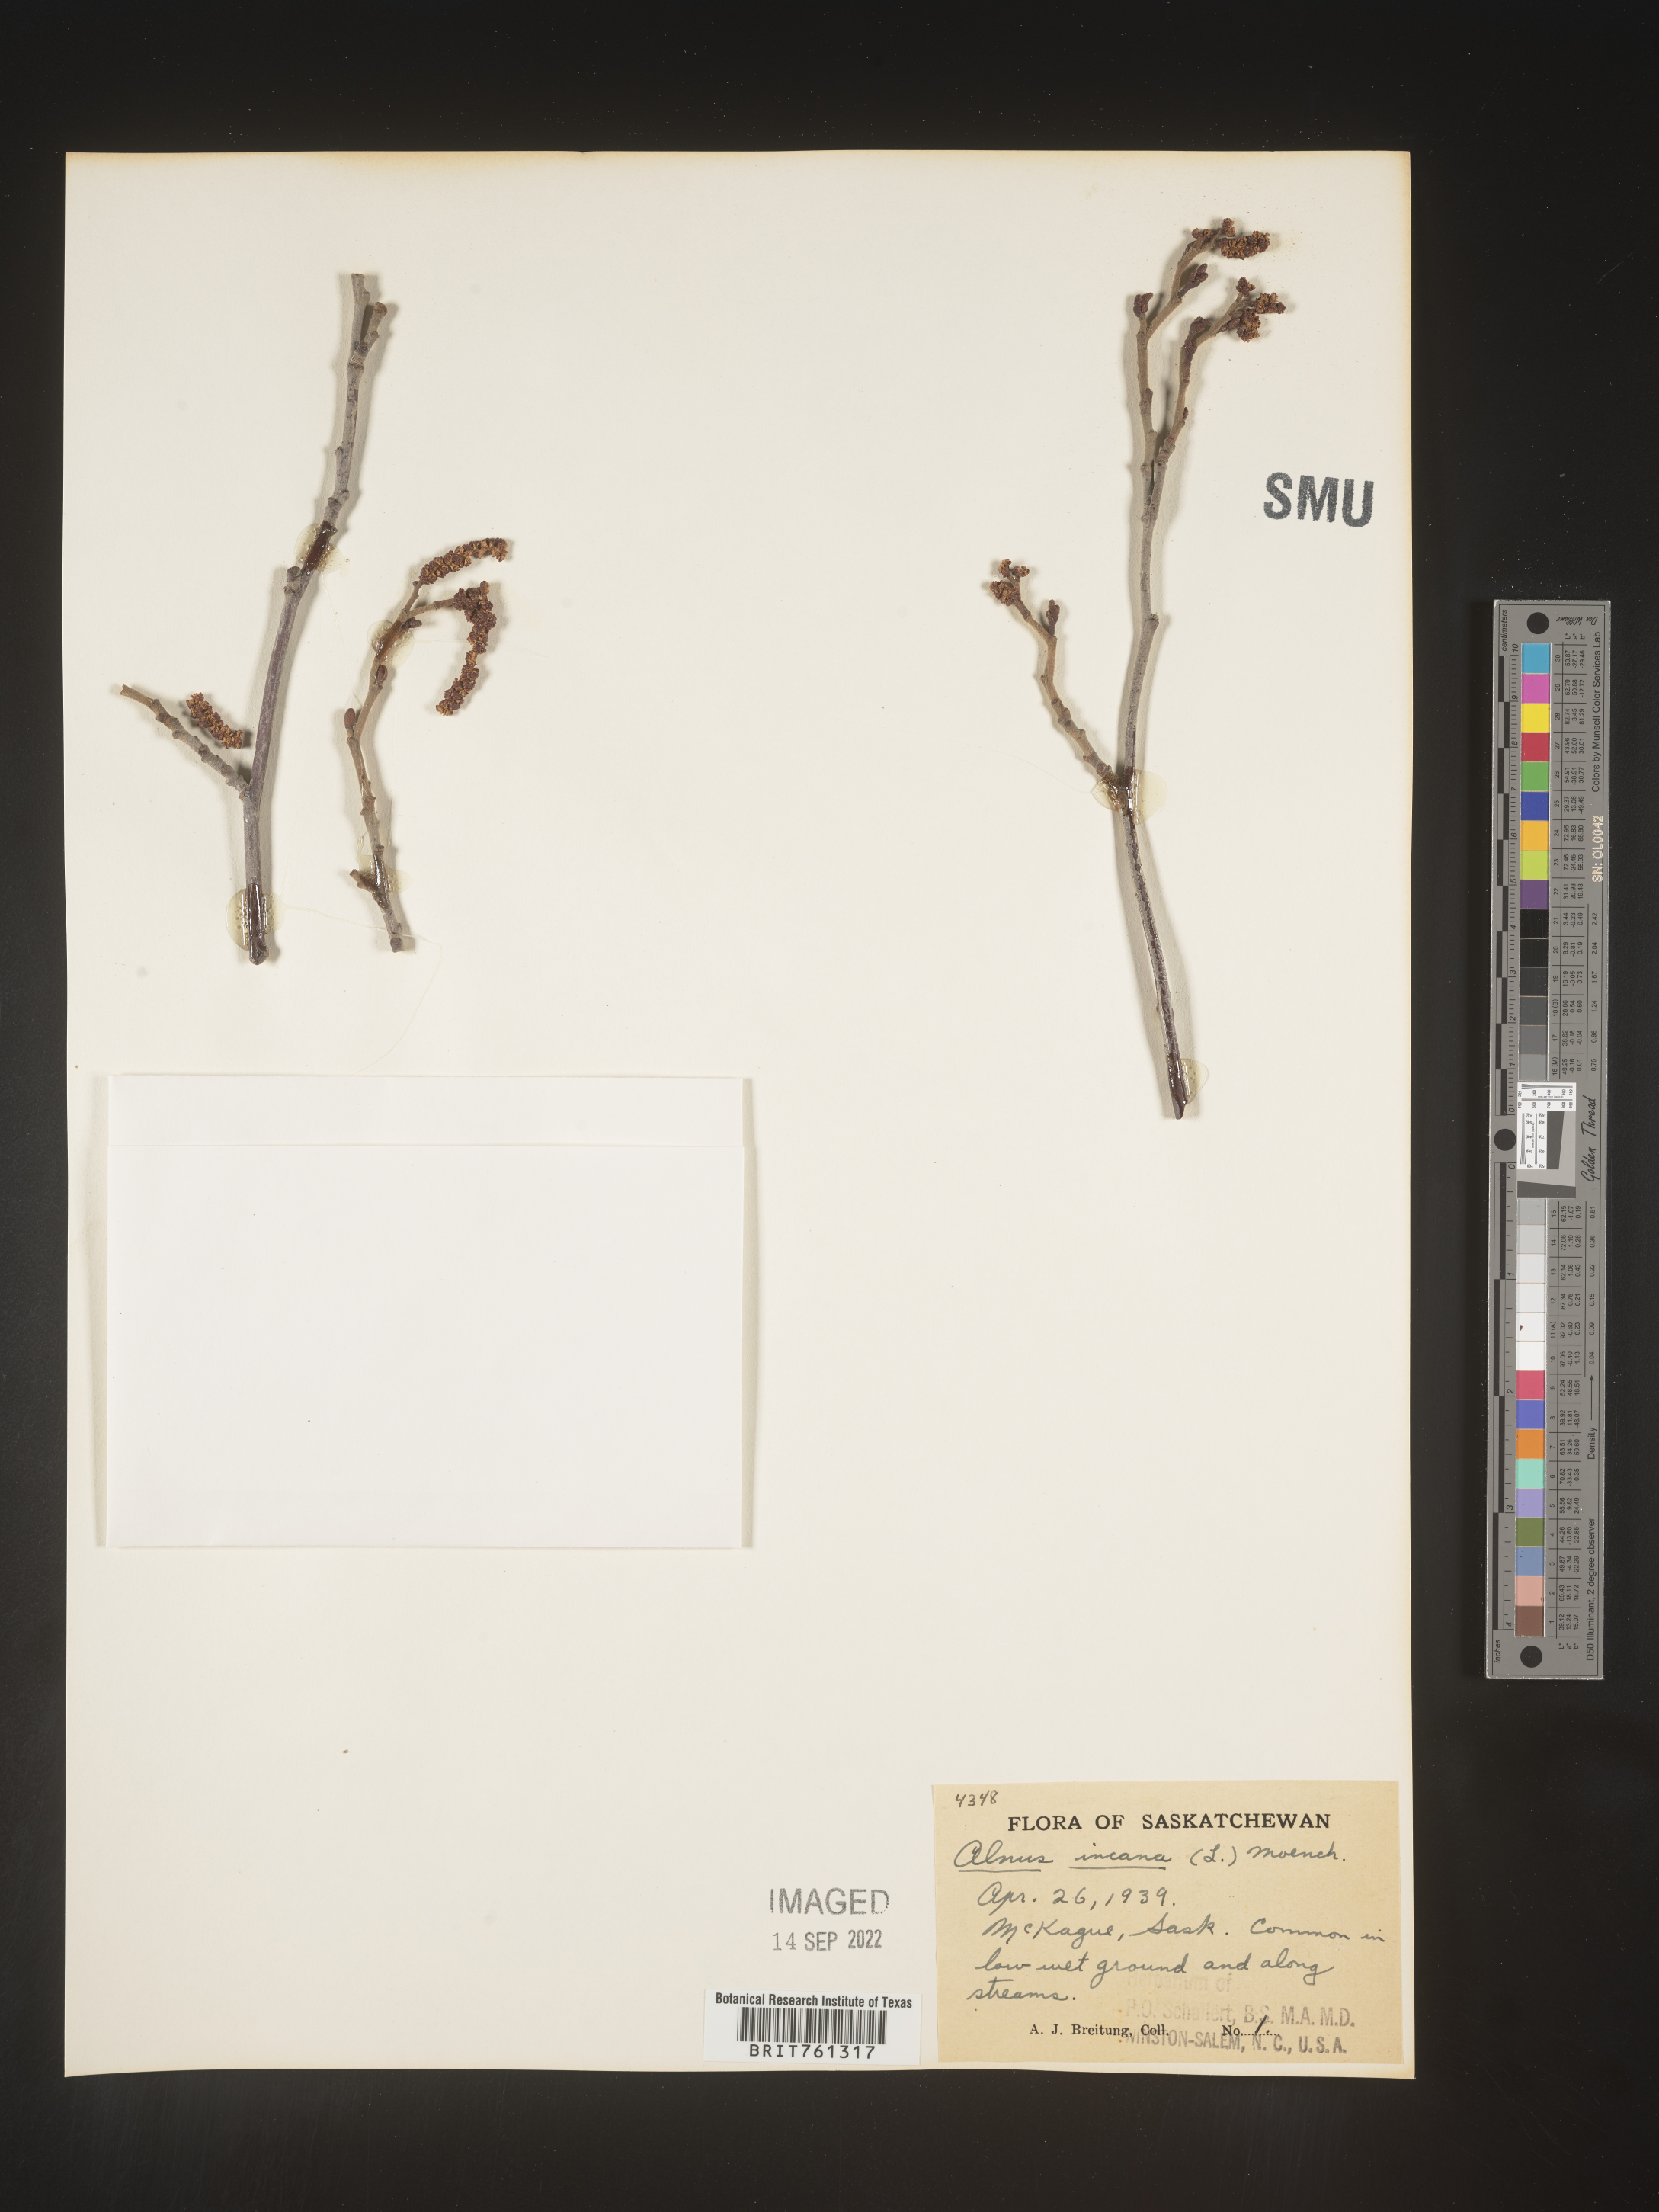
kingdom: Plantae
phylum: Tracheophyta
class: Magnoliopsida
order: Fagales
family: Betulaceae
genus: Alnus
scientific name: Alnus incana
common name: Grey alder
